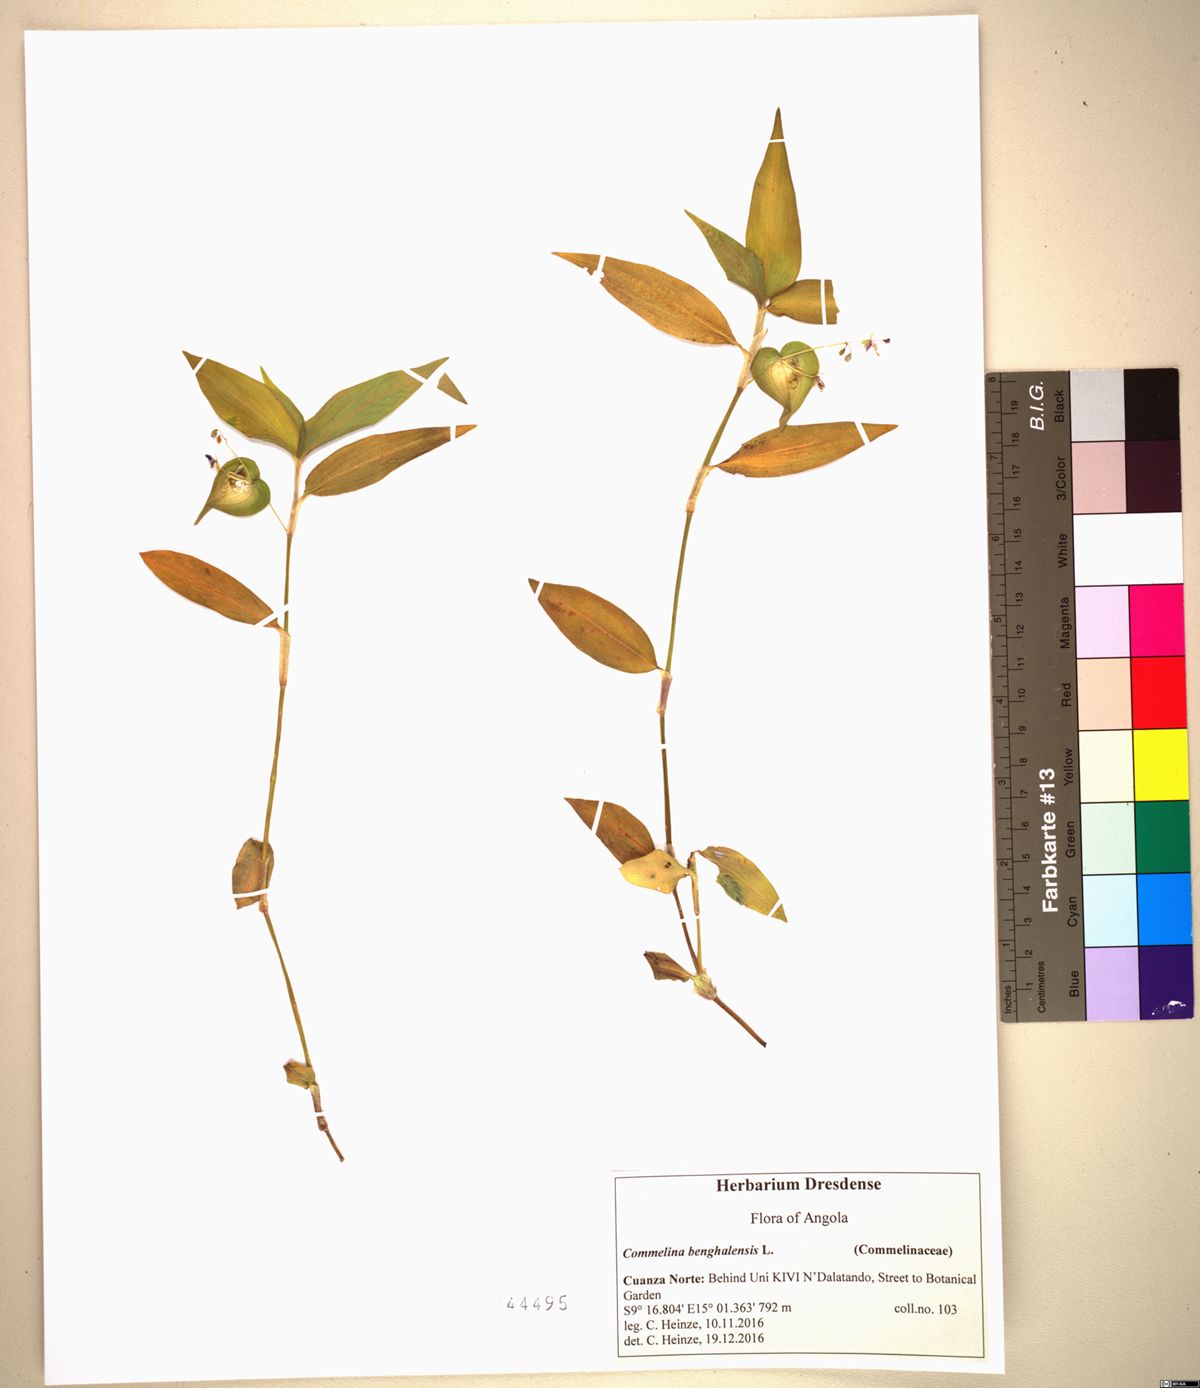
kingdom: Plantae
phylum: Tracheophyta
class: Liliopsida
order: Commelinales
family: Commelinaceae
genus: Commelina
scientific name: Commelina diffusa
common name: Climbing dayflower
